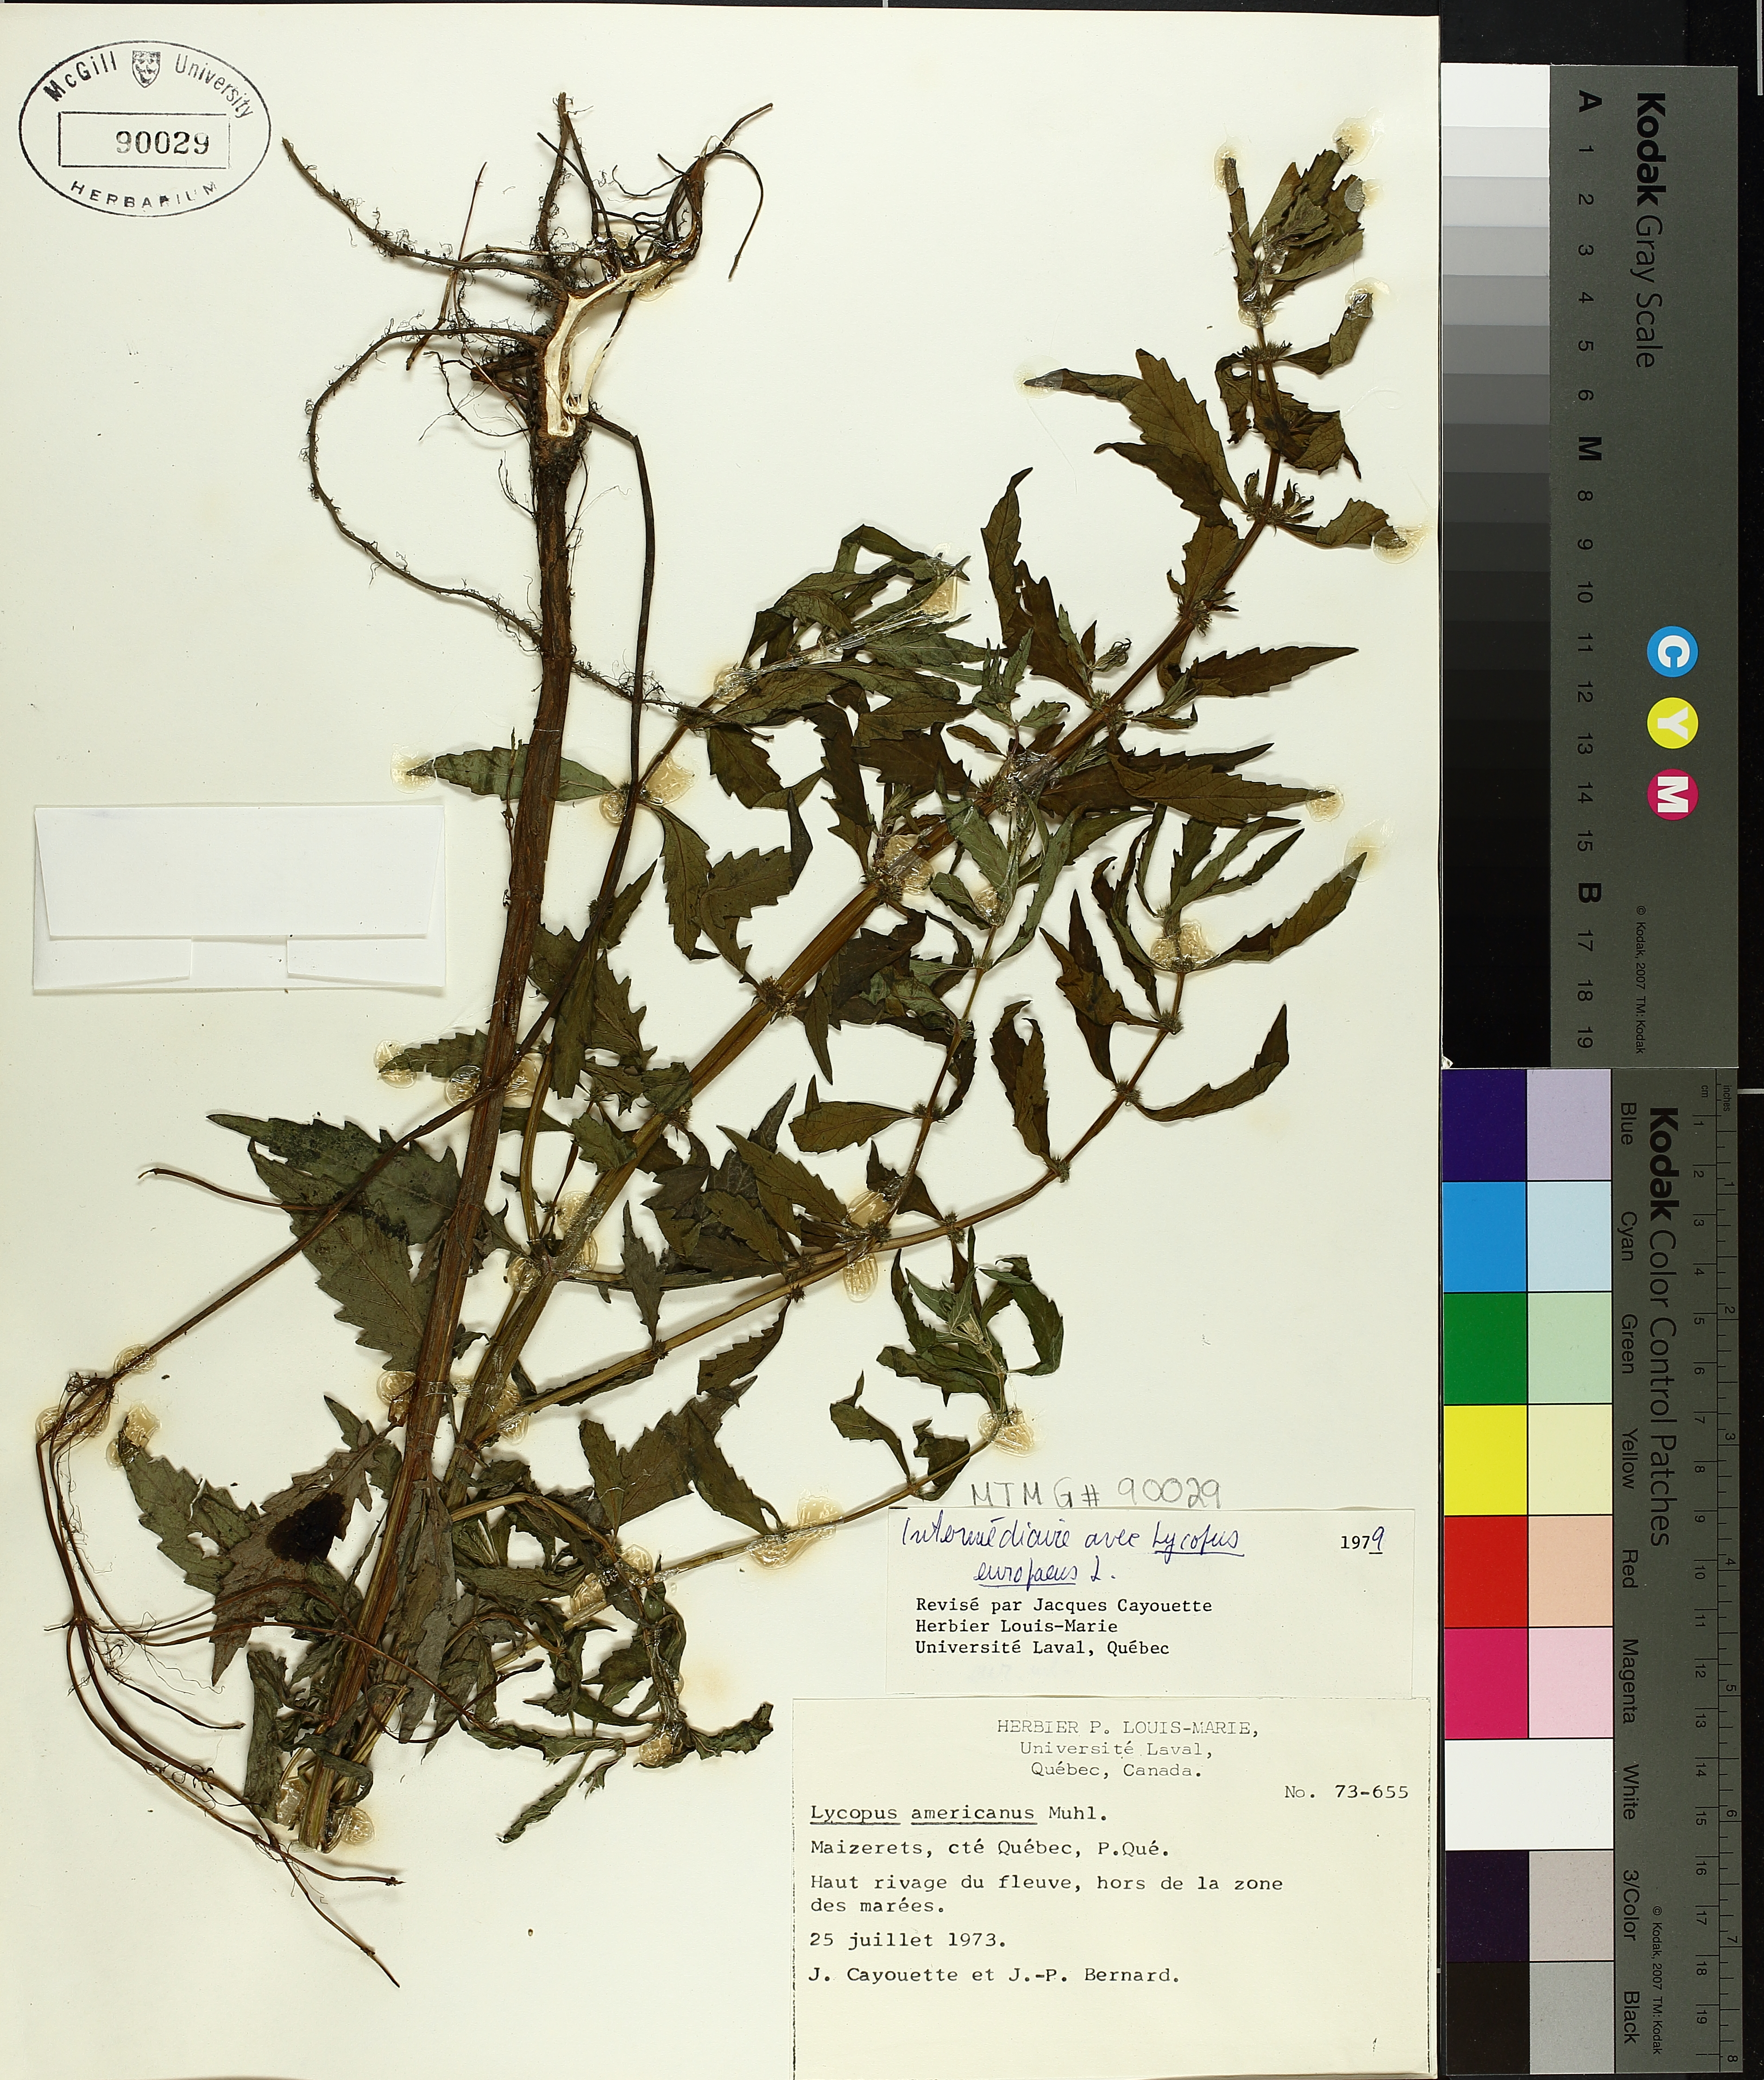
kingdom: Plantae
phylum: Tracheophyta
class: Magnoliopsida
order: Lamiales
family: Lamiaceae
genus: Lycopus
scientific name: Lycopus americanus
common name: American bugleweed
